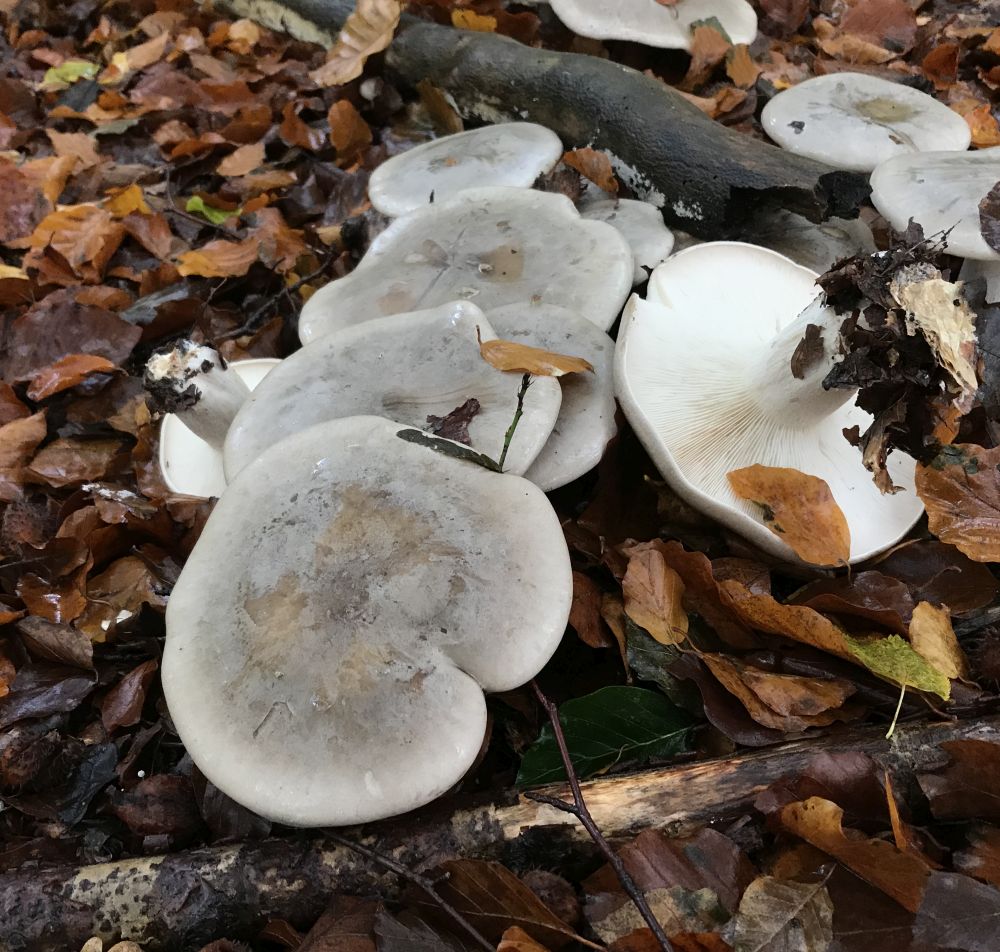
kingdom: Fungi
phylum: Basidiomycota
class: Agaricomycetes
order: Agaricales
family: Tricholomataceae
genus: Clitocybe
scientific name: Clitocybe nebularis
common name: tåge-tragthat
